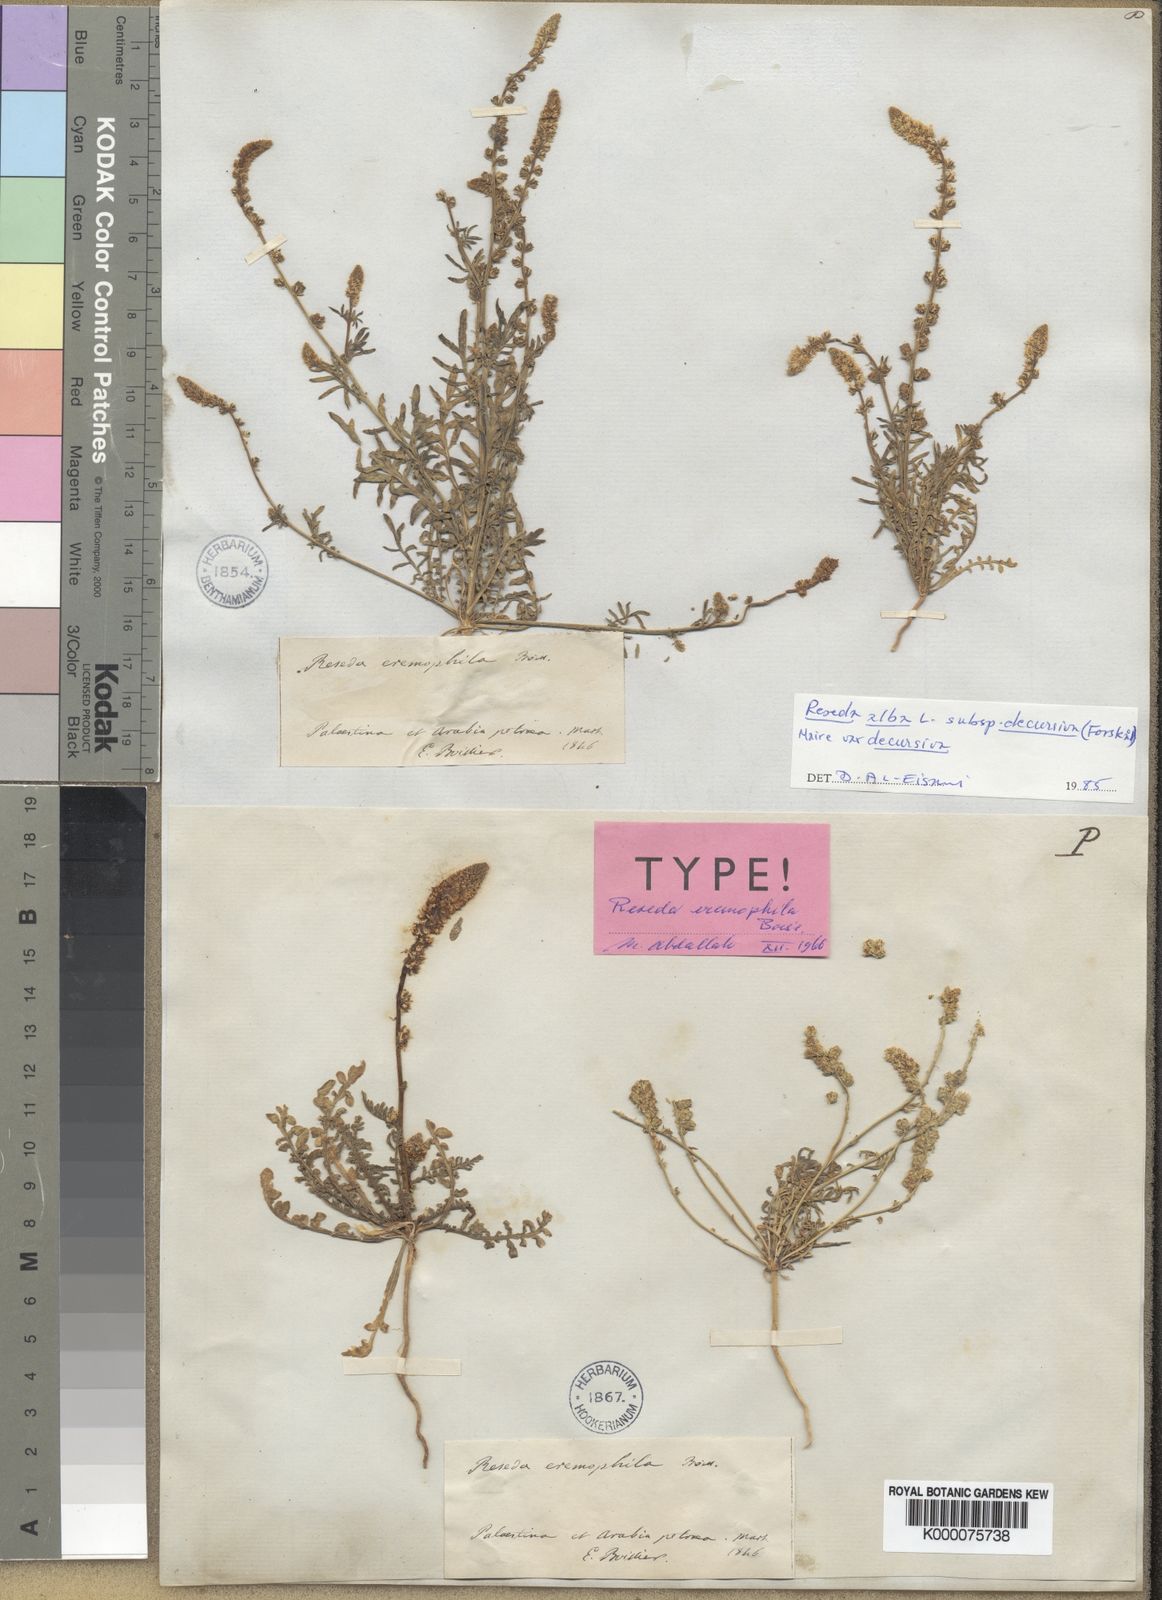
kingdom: Plantae
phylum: Tracheophyta
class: Magnoliopsida
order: Brassicales
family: Resedaceae
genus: Reseda
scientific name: Reseda alba
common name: White mignonette
